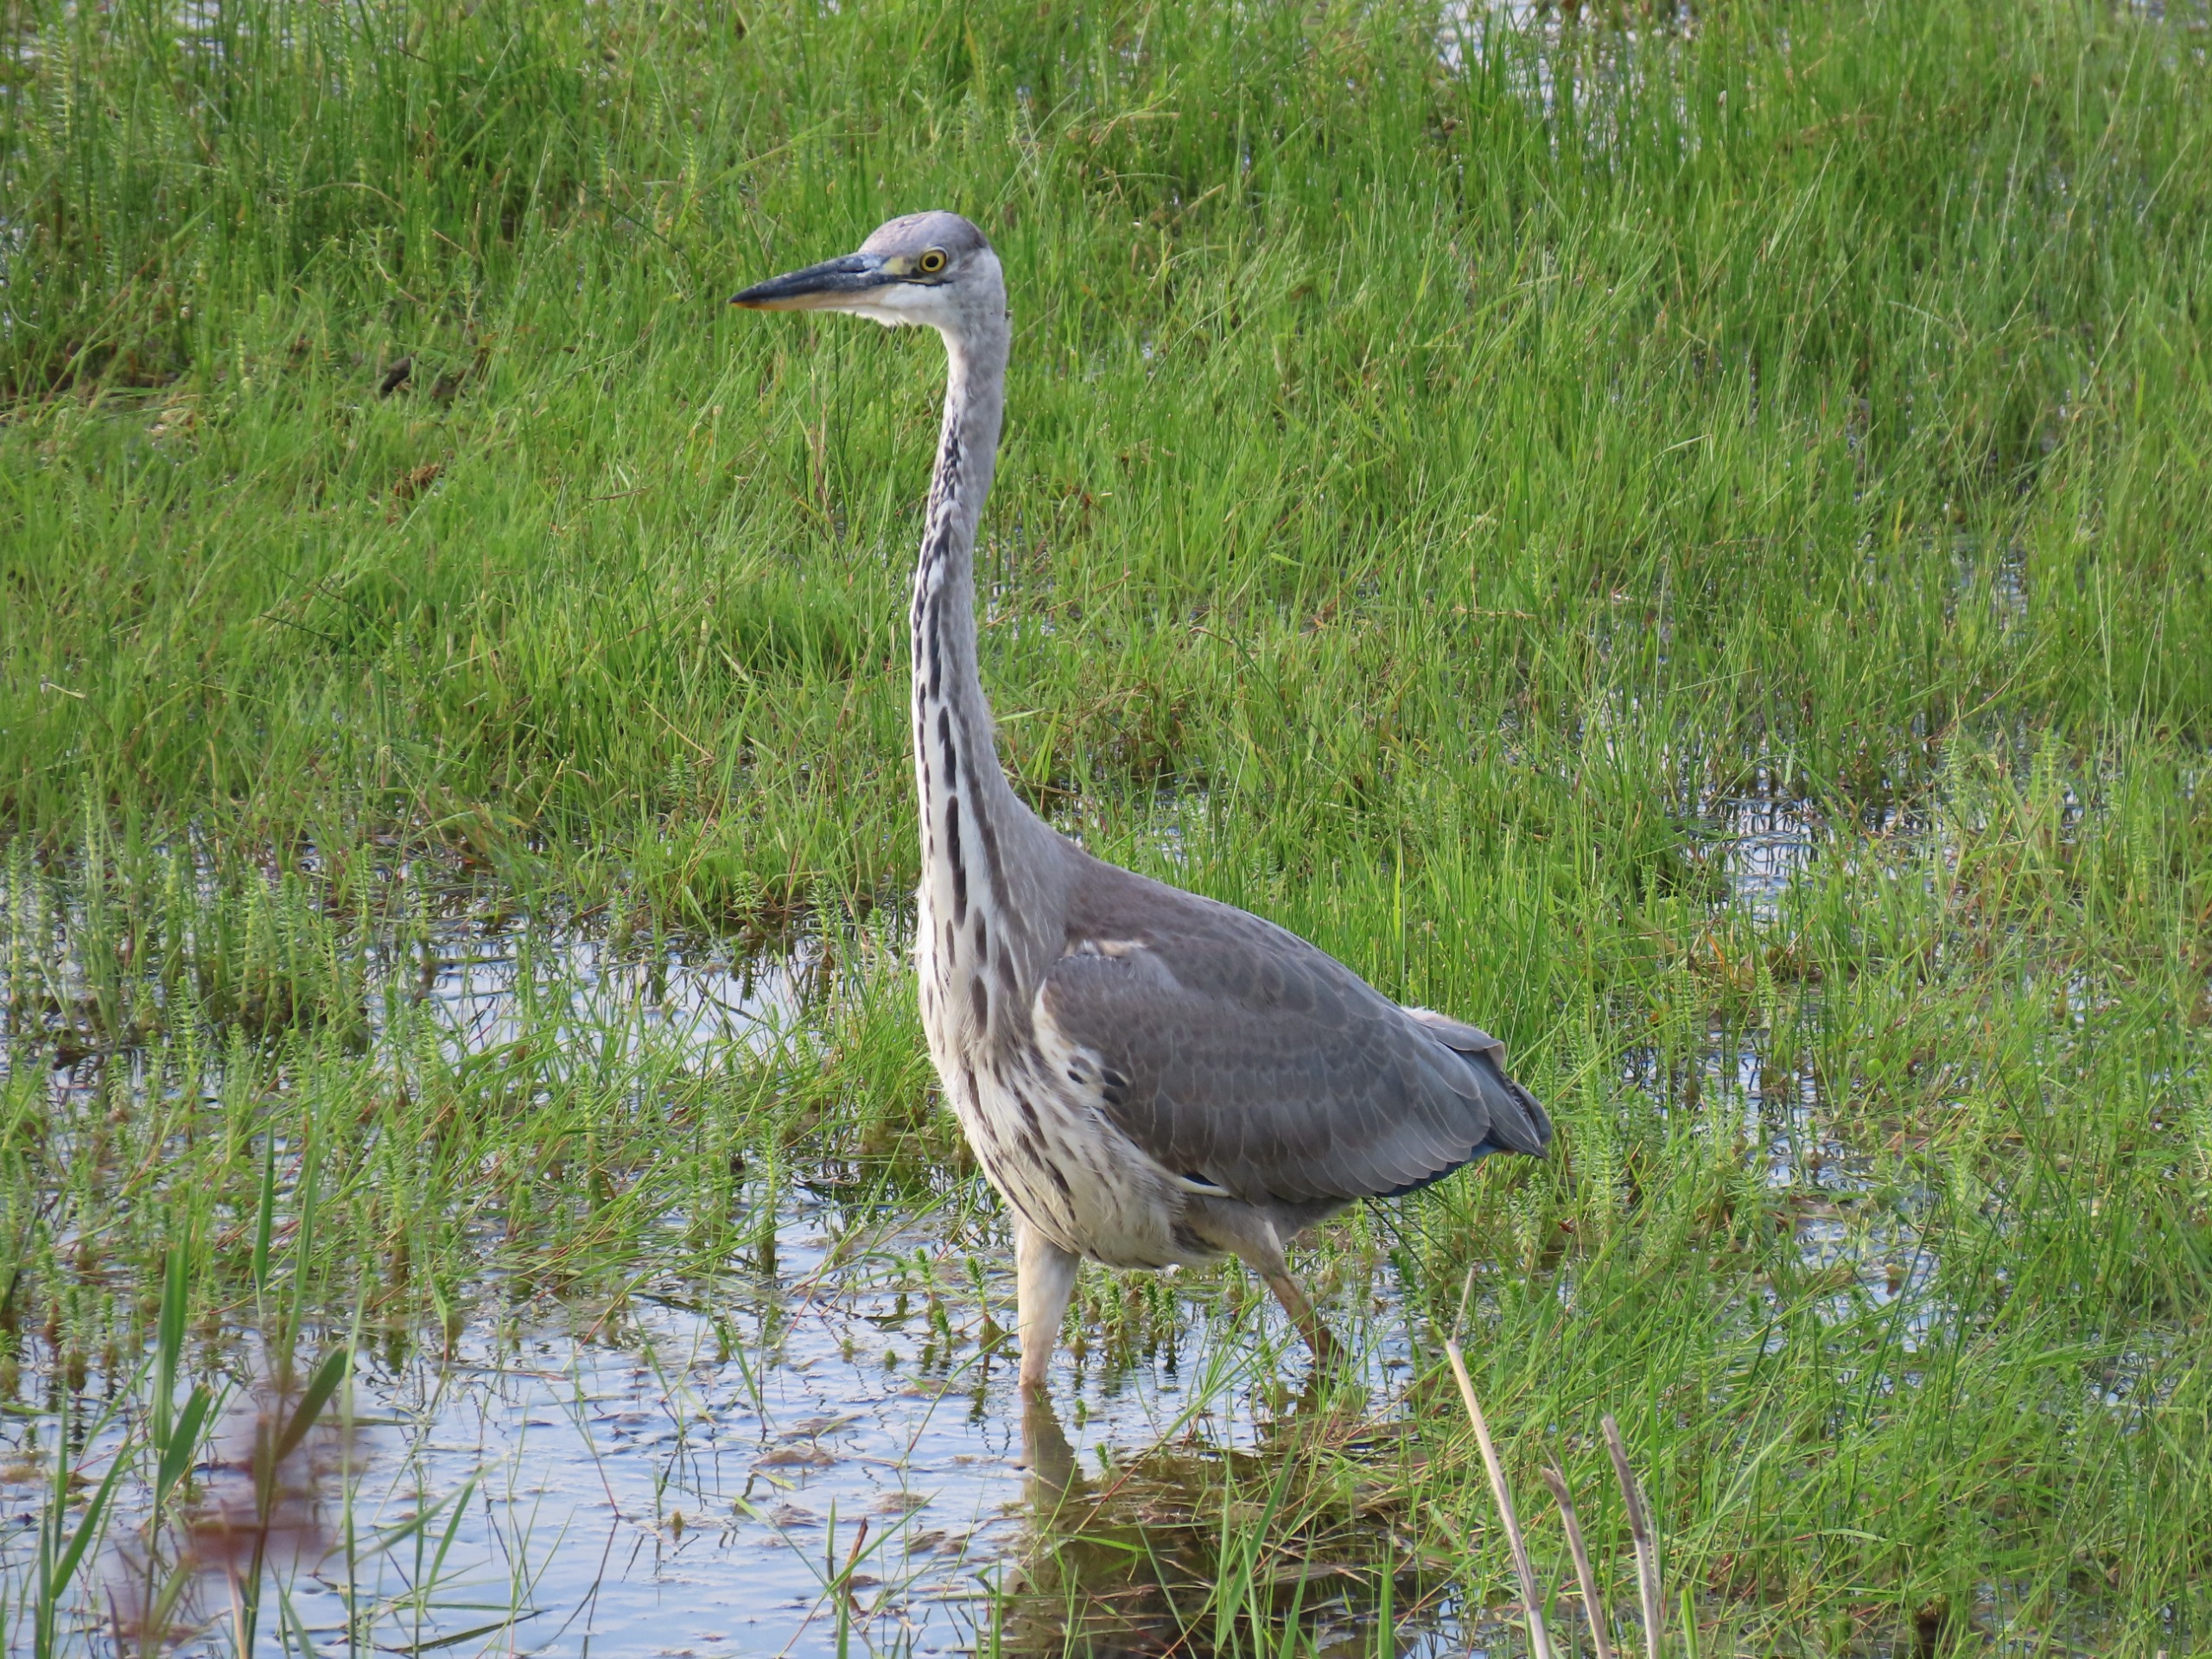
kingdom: Animalia
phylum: Chordata
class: Aves
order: Pelecaniformes
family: Ardeidae
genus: Ardea
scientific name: Ardea cinerea
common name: Fiskehejre
